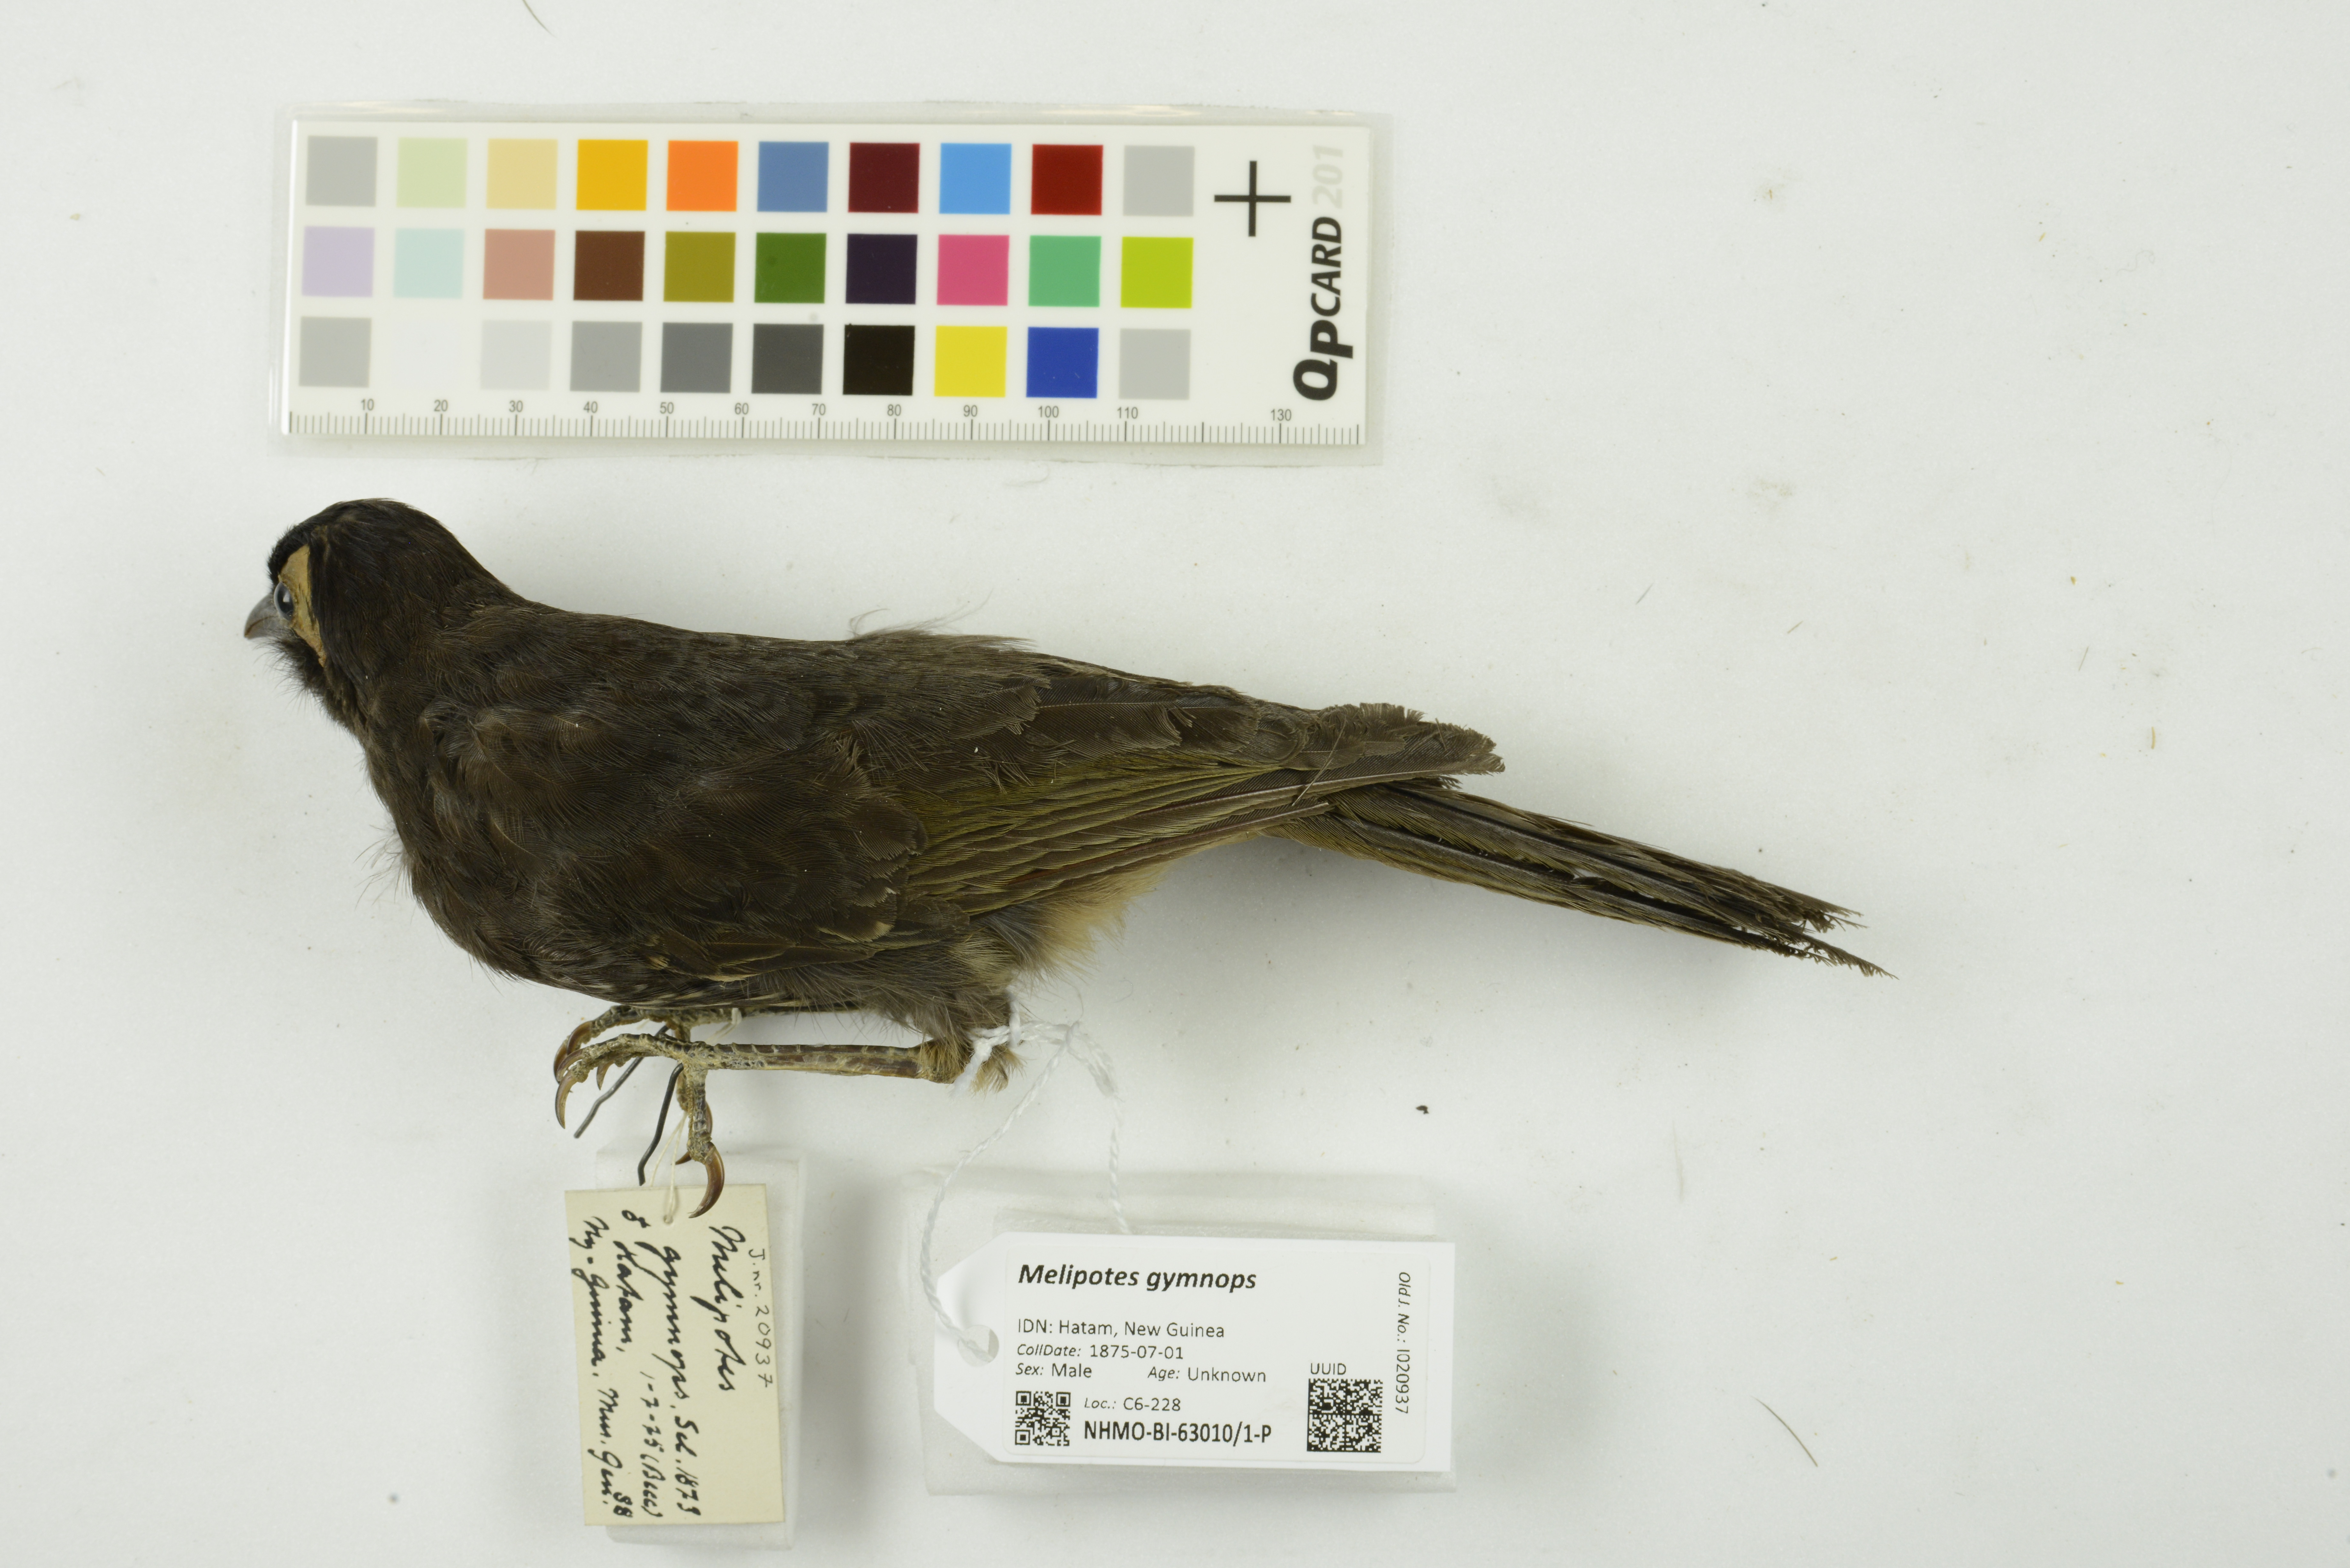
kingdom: Animalia
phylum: Chordata
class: Aves
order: Passeriformes
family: Meliphagidae
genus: Melipotes
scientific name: Melipotes gymnops
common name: Arfak honeyeater
